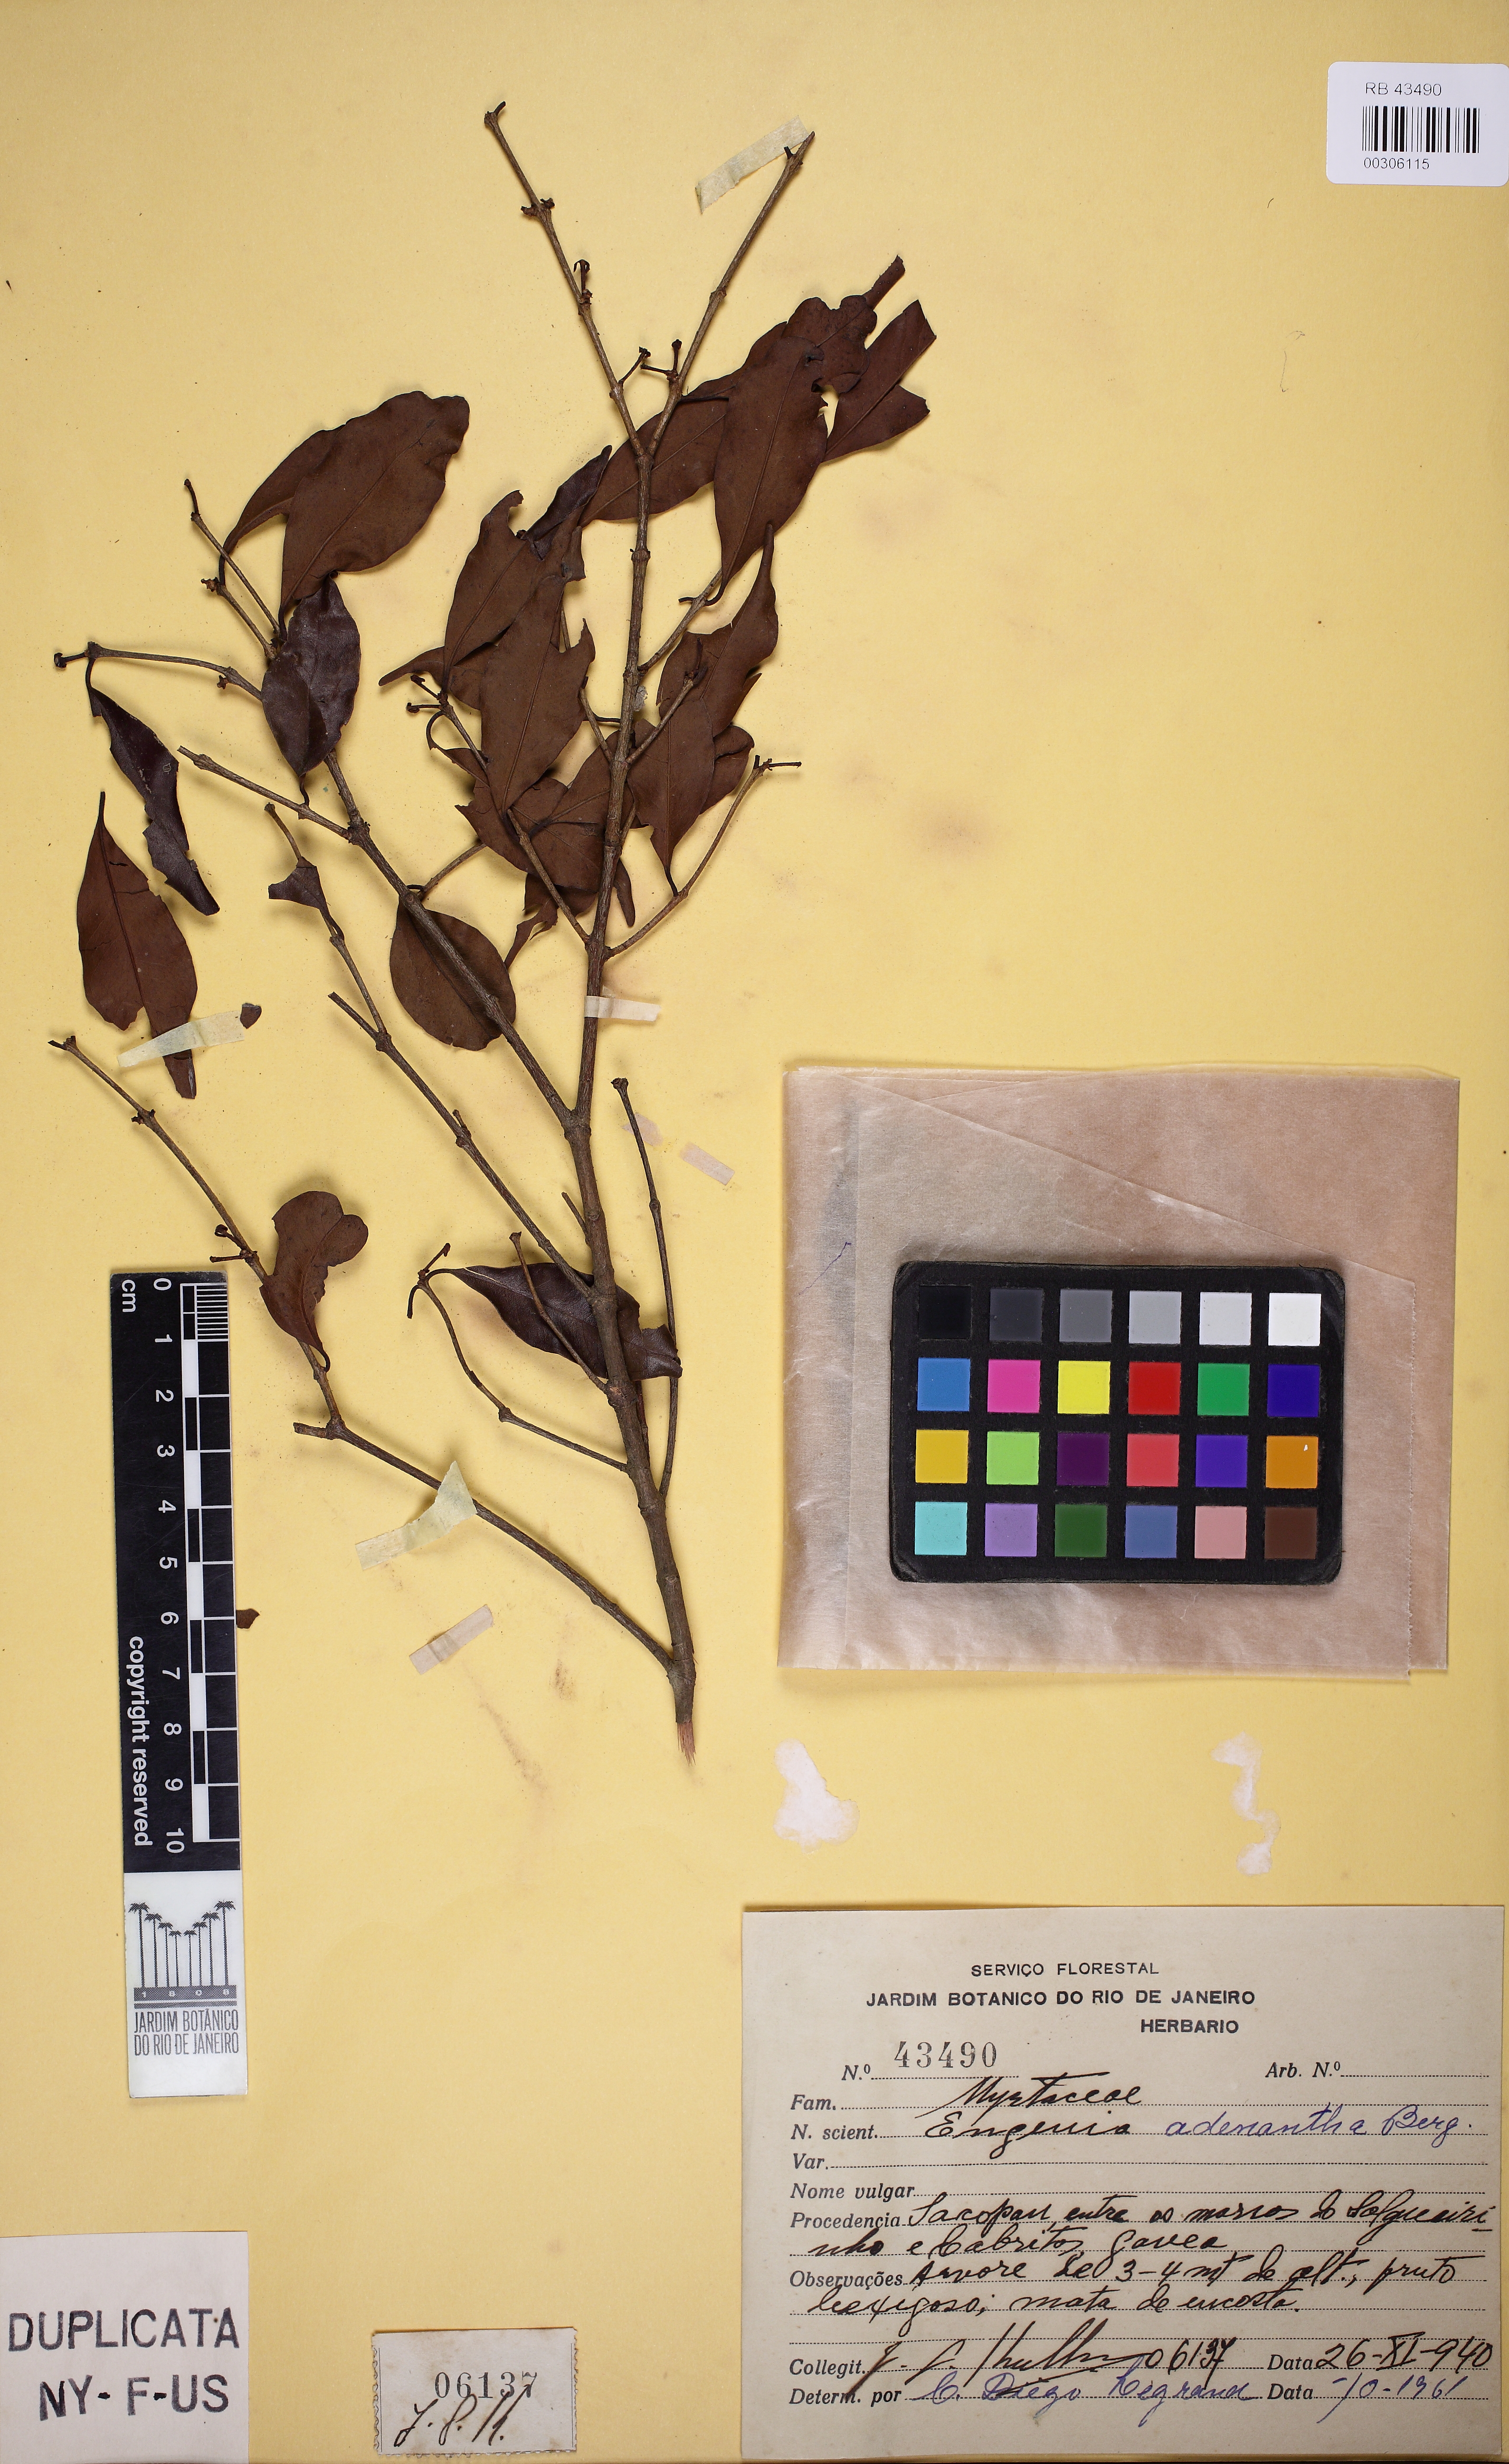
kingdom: Plantae
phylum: Tracheophyta
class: Magnoliopsida
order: Myrtales
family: Myrtaceae
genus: Eugenia
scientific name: Eugenia adenantha
